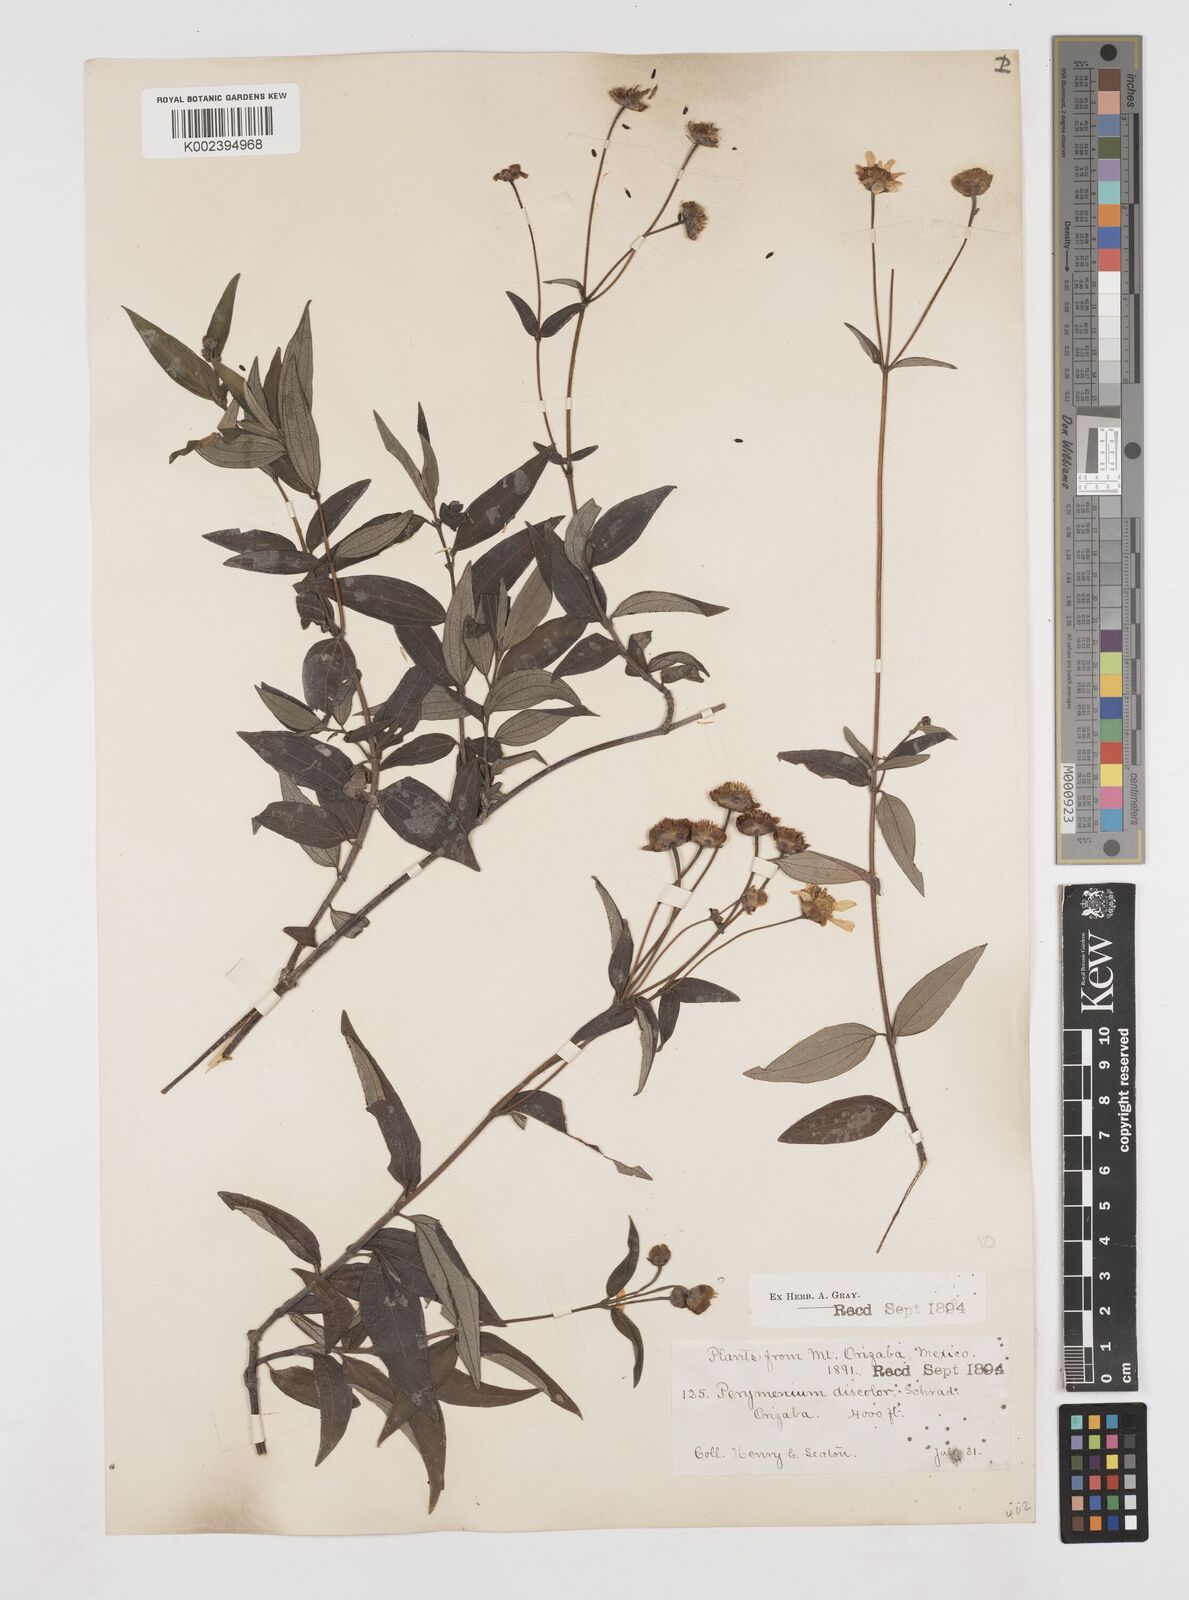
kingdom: Plantae
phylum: Tracheophyta
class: Magnoliopsida
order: Asterales
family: Asteraceae
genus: Perymenium
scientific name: Perymenium klattianum
